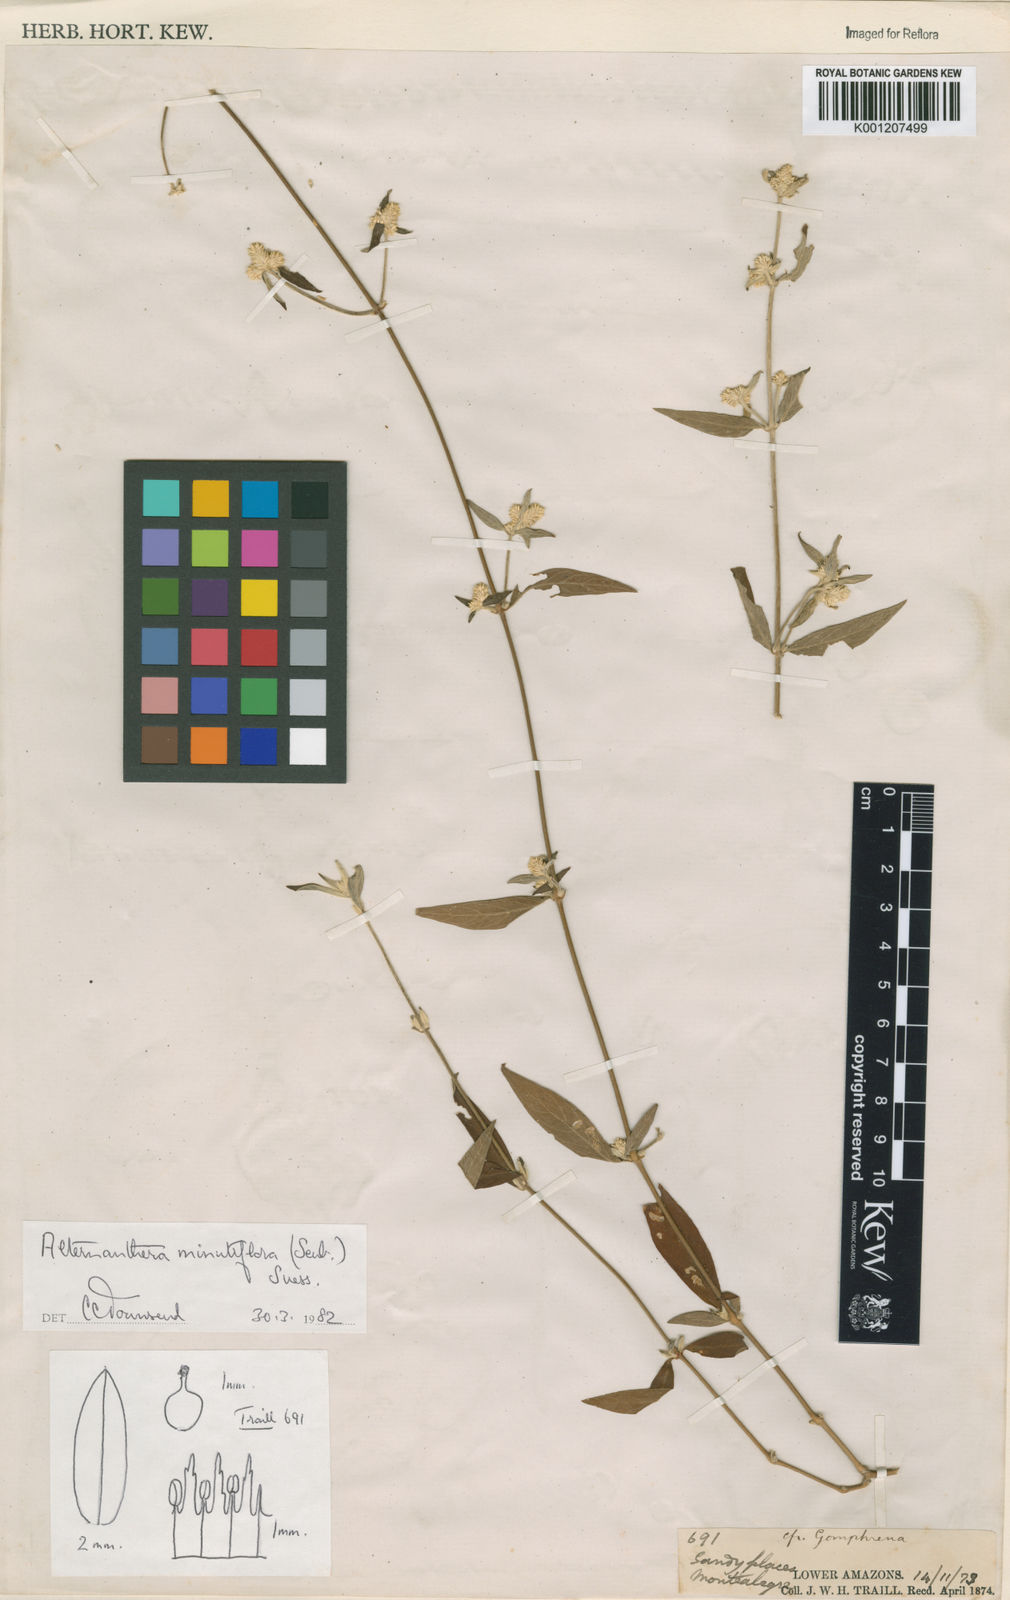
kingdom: Plantae
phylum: Tracheophyta
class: Magnoliopsida
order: Caryophyllales
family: Amaranthaceae
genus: Alternanthera
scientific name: Alternanthera minutiflora
